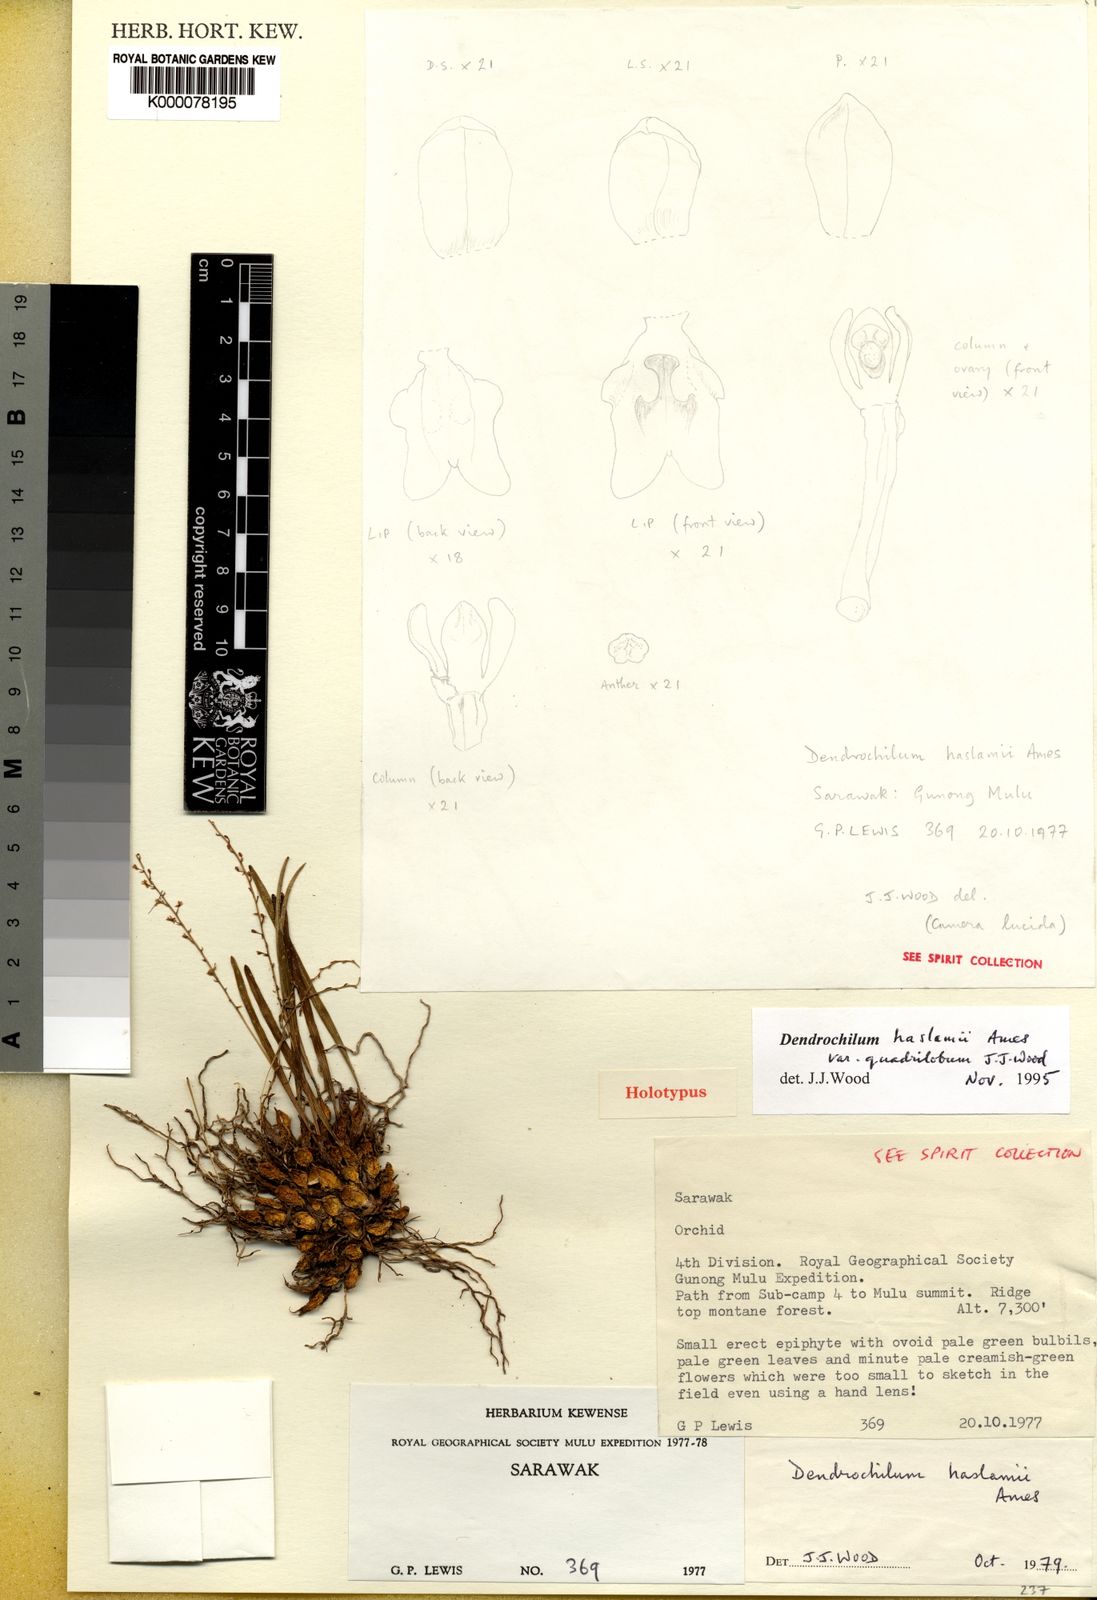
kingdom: Plantae
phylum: Tracheophyta
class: Liliopsida
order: Asparagales
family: Orchidaceae
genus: Coelogyne
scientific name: Coelogyne haslamii
